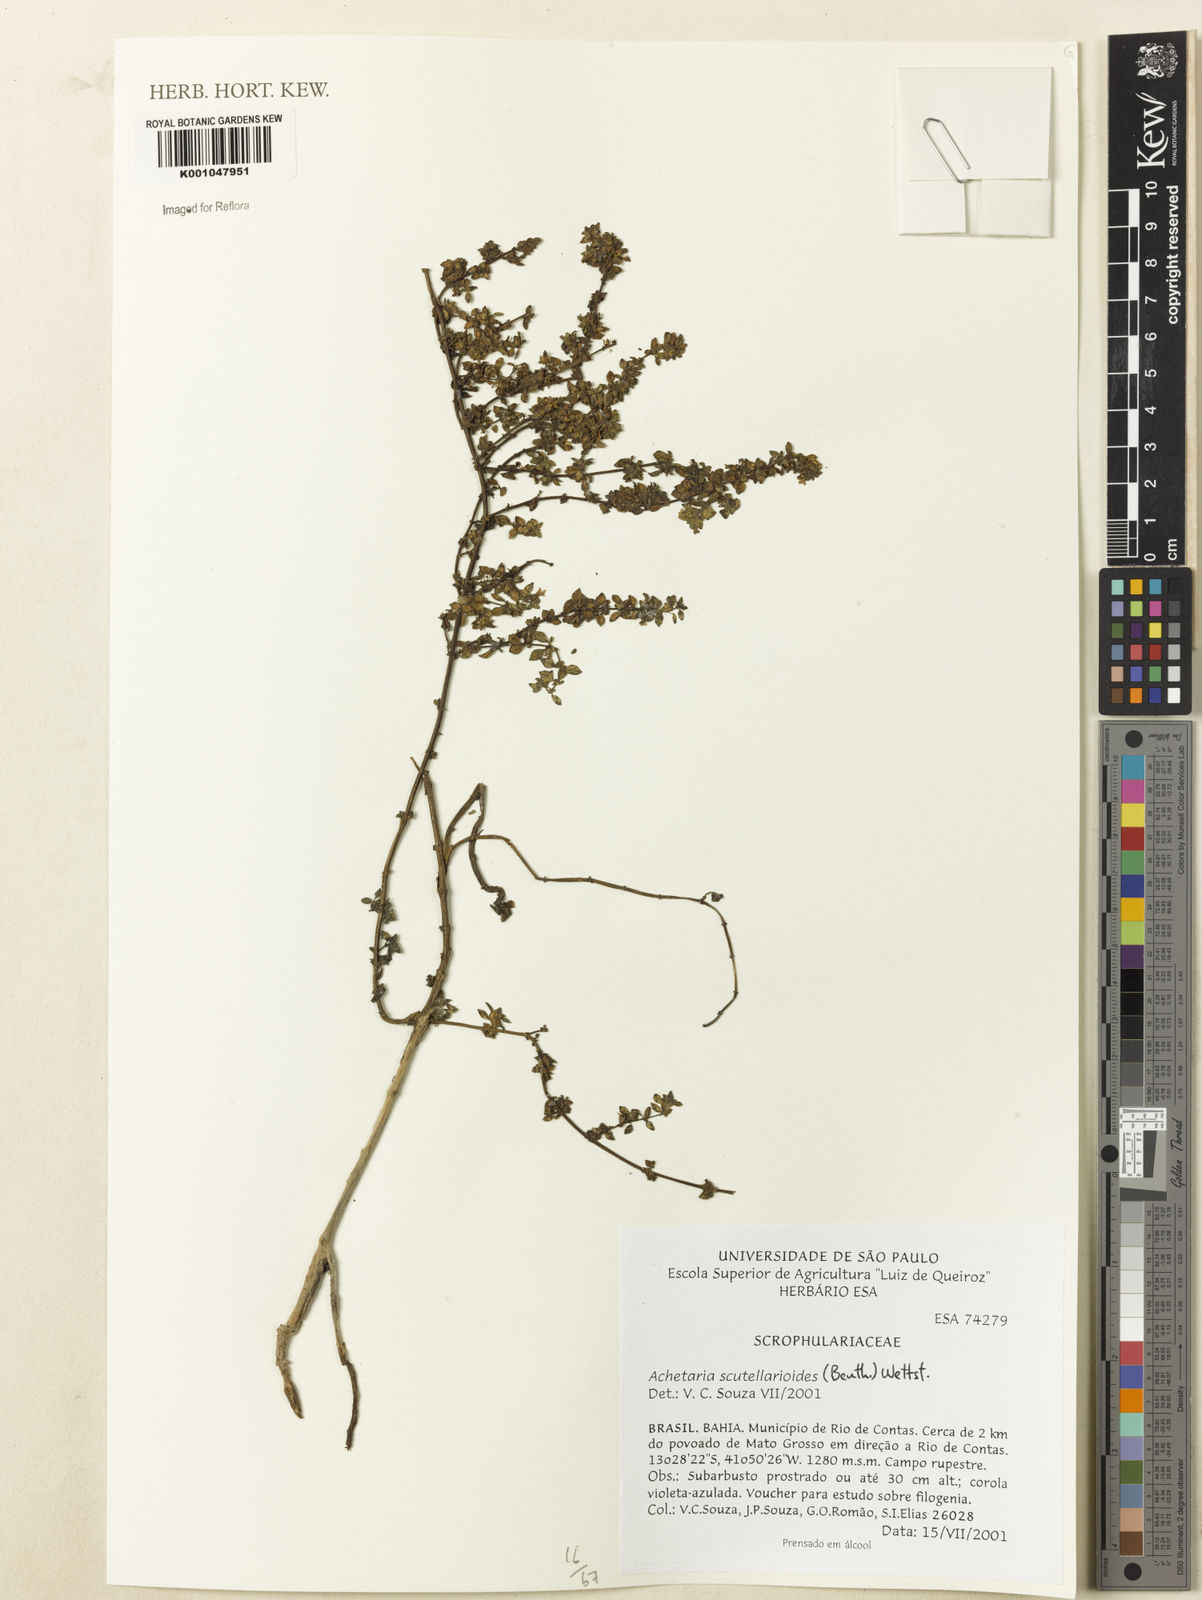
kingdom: Plantae
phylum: Tracheophyta
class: Magnoliopsida
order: Lamiales
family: Plantaginaceae
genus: Matourea
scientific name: Matourea scutellarioides
